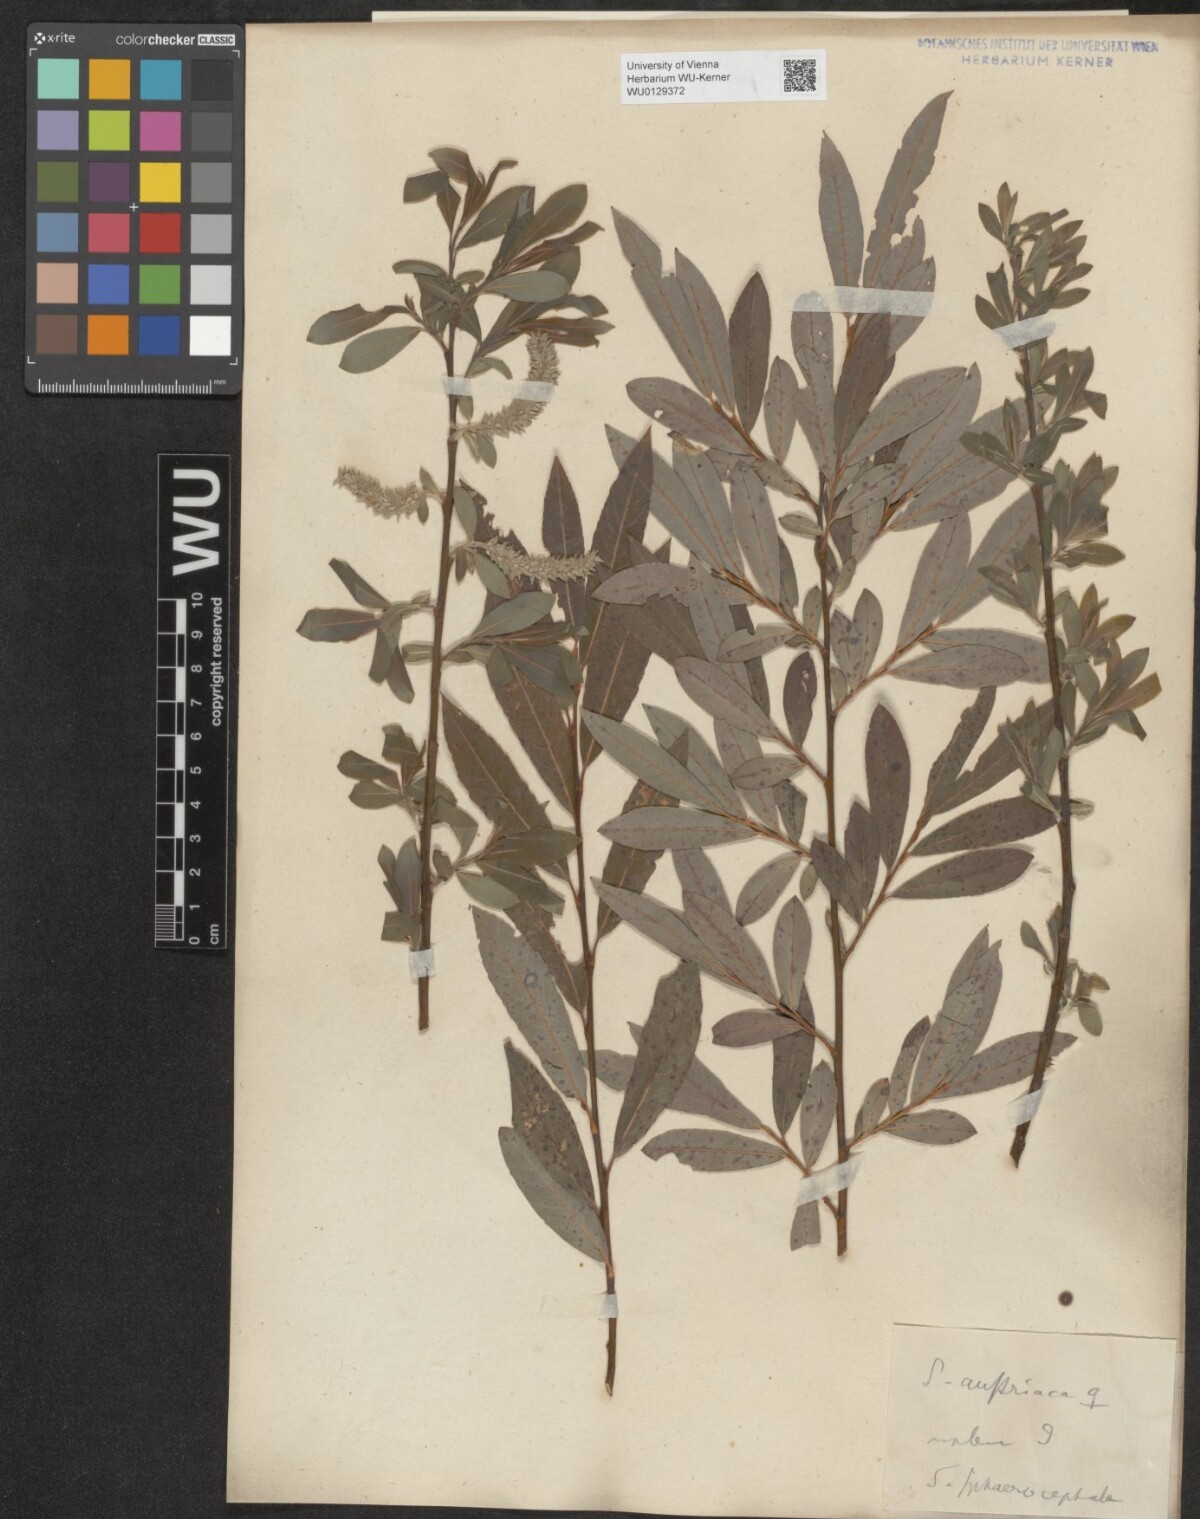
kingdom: Plantae
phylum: Tracheophyta
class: Magnoliopsida
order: Malpighiales
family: Salicaceae
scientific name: Salicaceae
